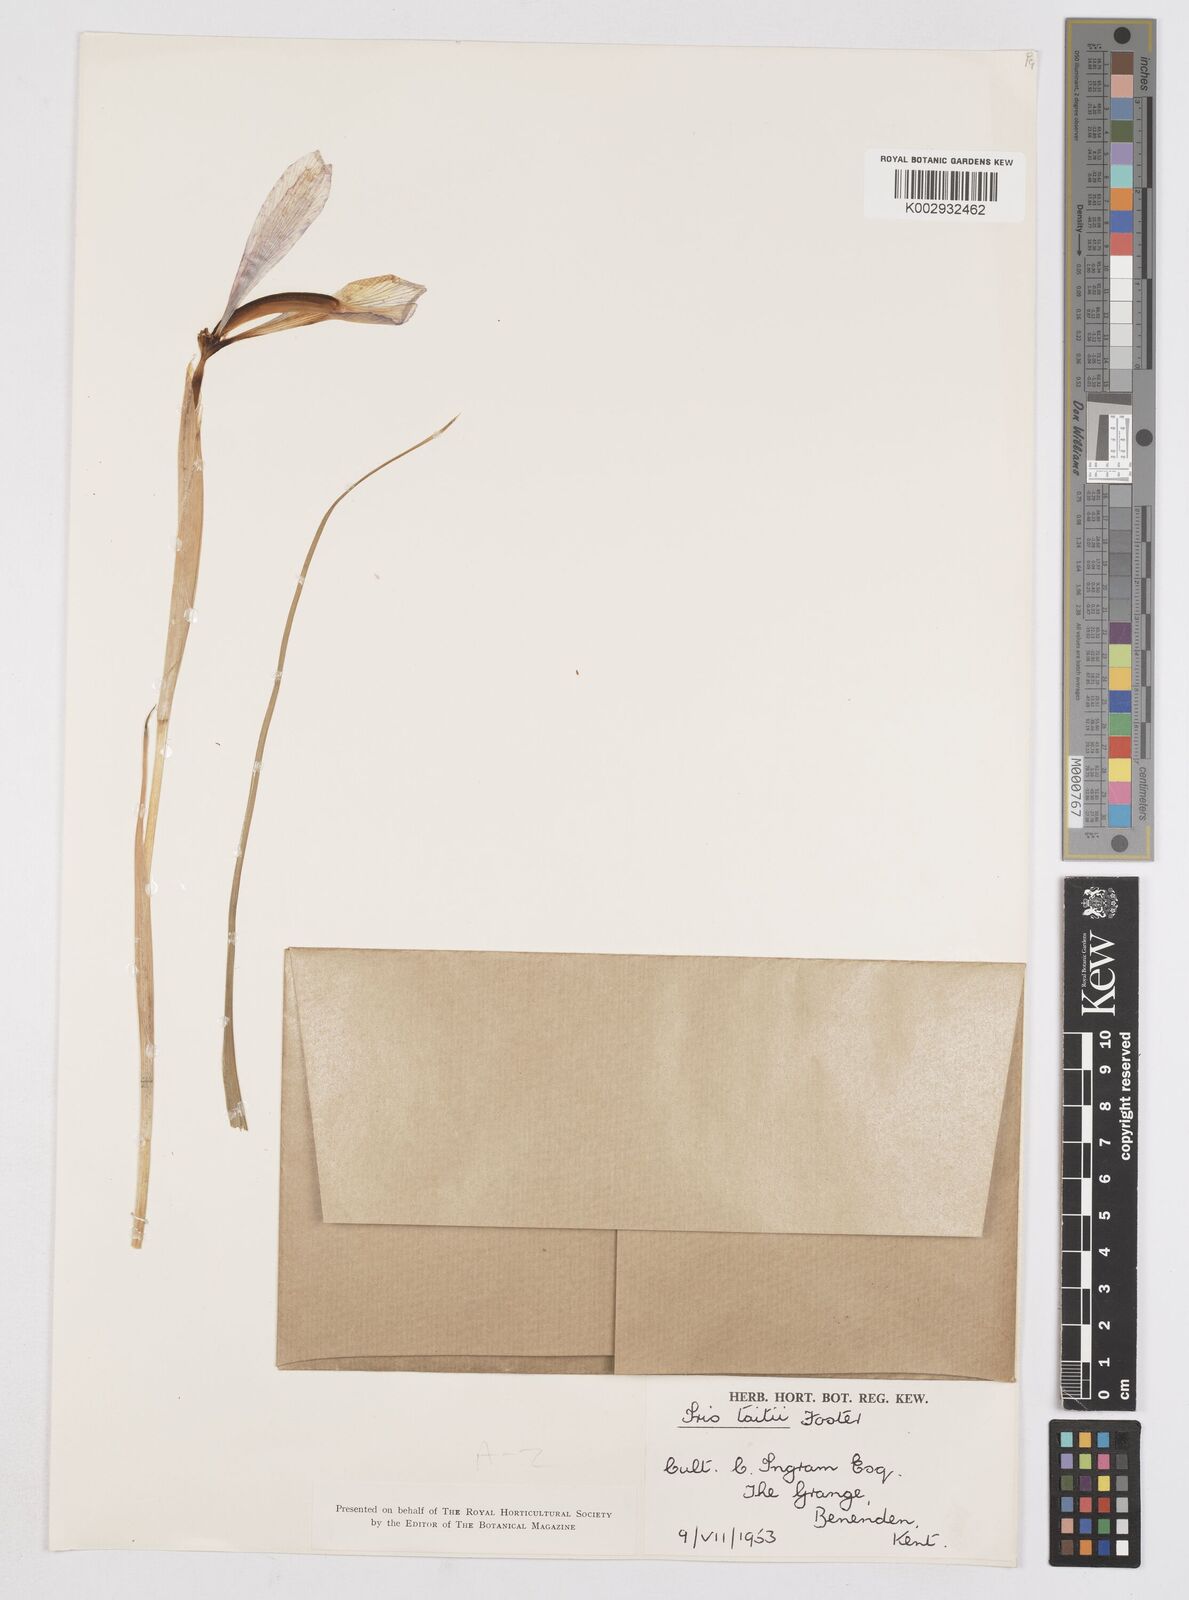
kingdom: Plantae
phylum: Tracheophyta
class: Liliopsida
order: Asparagales
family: Iridaceae
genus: Iris
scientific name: Iris xiphium
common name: Spanish iris
